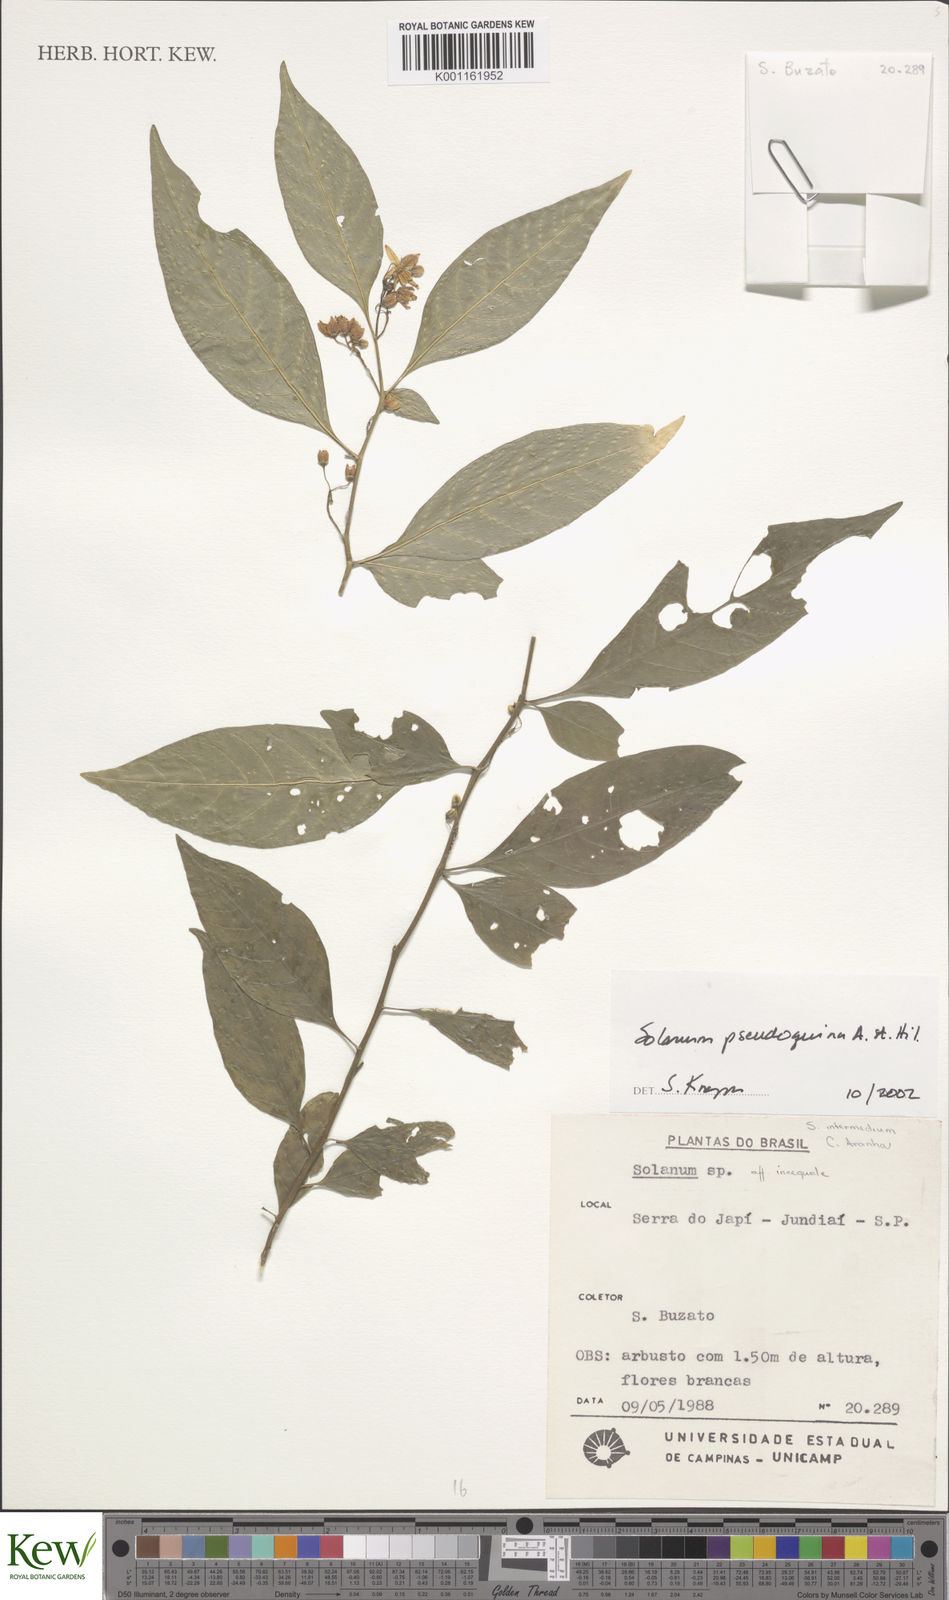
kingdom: Plantae
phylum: Tracheophyta
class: Magnoliopsida
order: Solanales
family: Solanaceae
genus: Solanum
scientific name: Solanum pseudoquina
